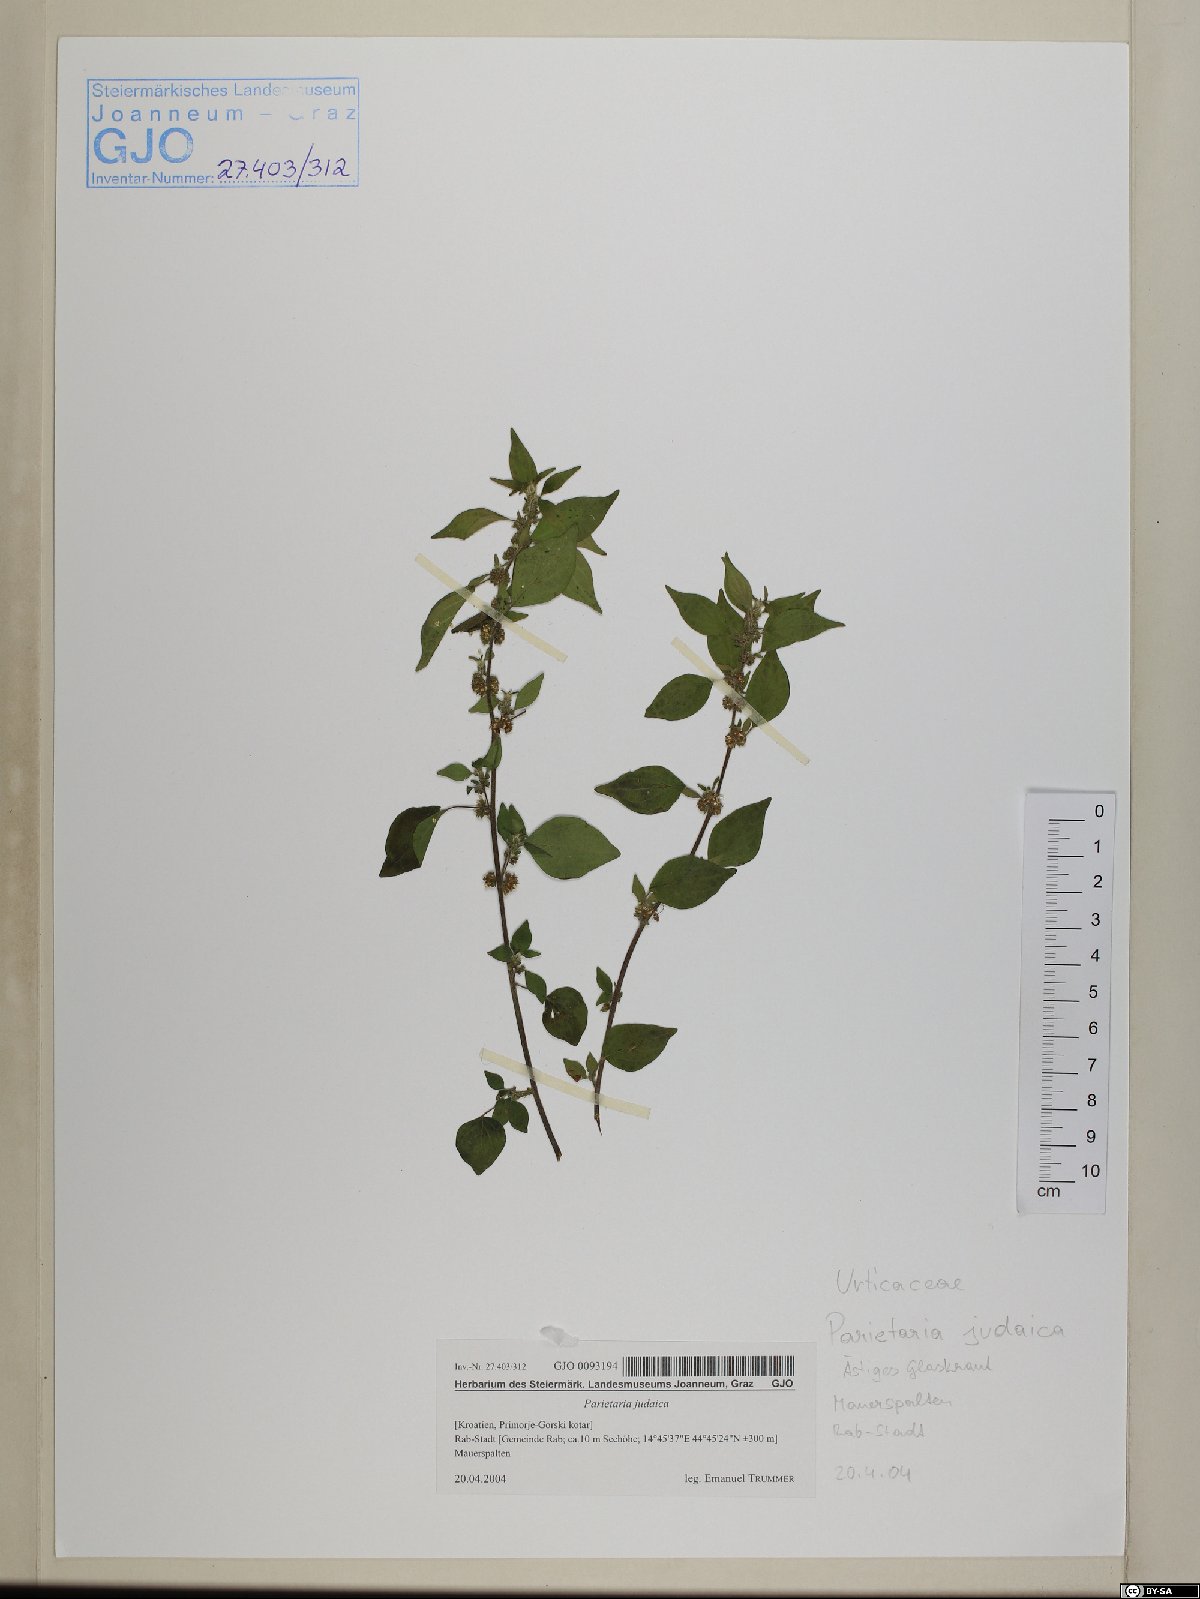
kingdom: Plantae
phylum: Tracheophyta
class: Magnoliopsida
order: Rosales
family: Urticaceae
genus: Parietaria
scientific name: Parietaria judaica
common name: Pellitory-of-the-wall
